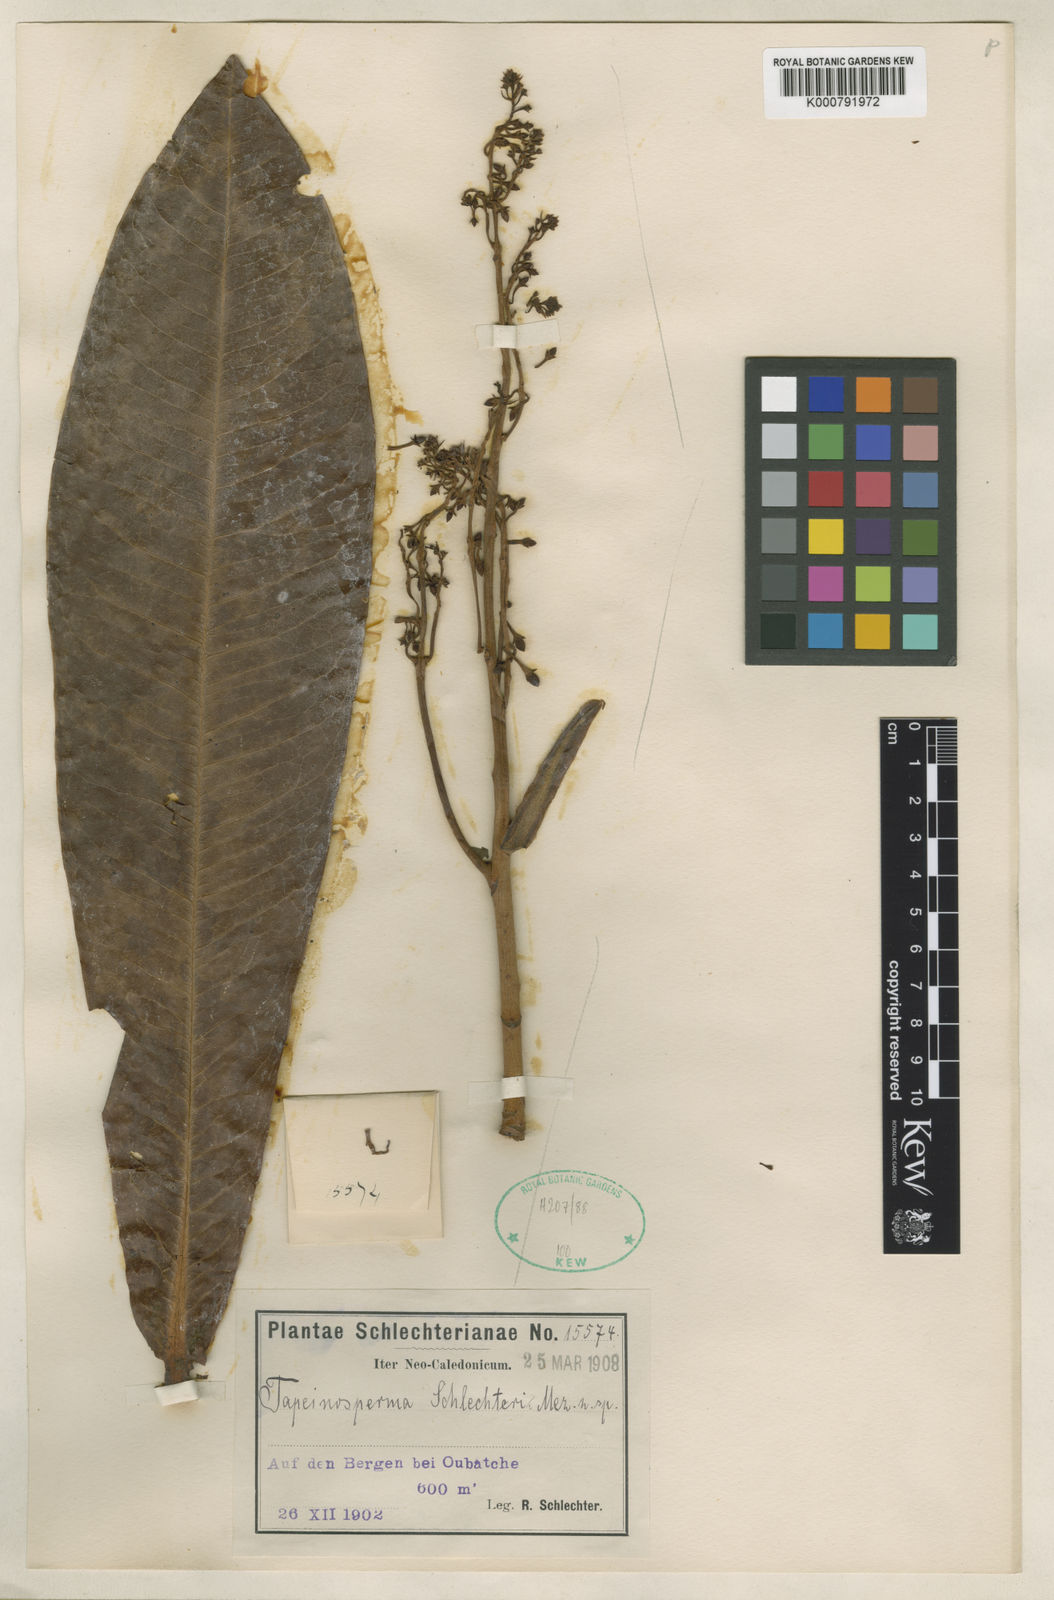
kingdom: Plantae
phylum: Tracheophyta
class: Magnoliopsida
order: Ericales
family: Primulaceae
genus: Tapeinosperma
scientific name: Tapeinosperma schlechteri
